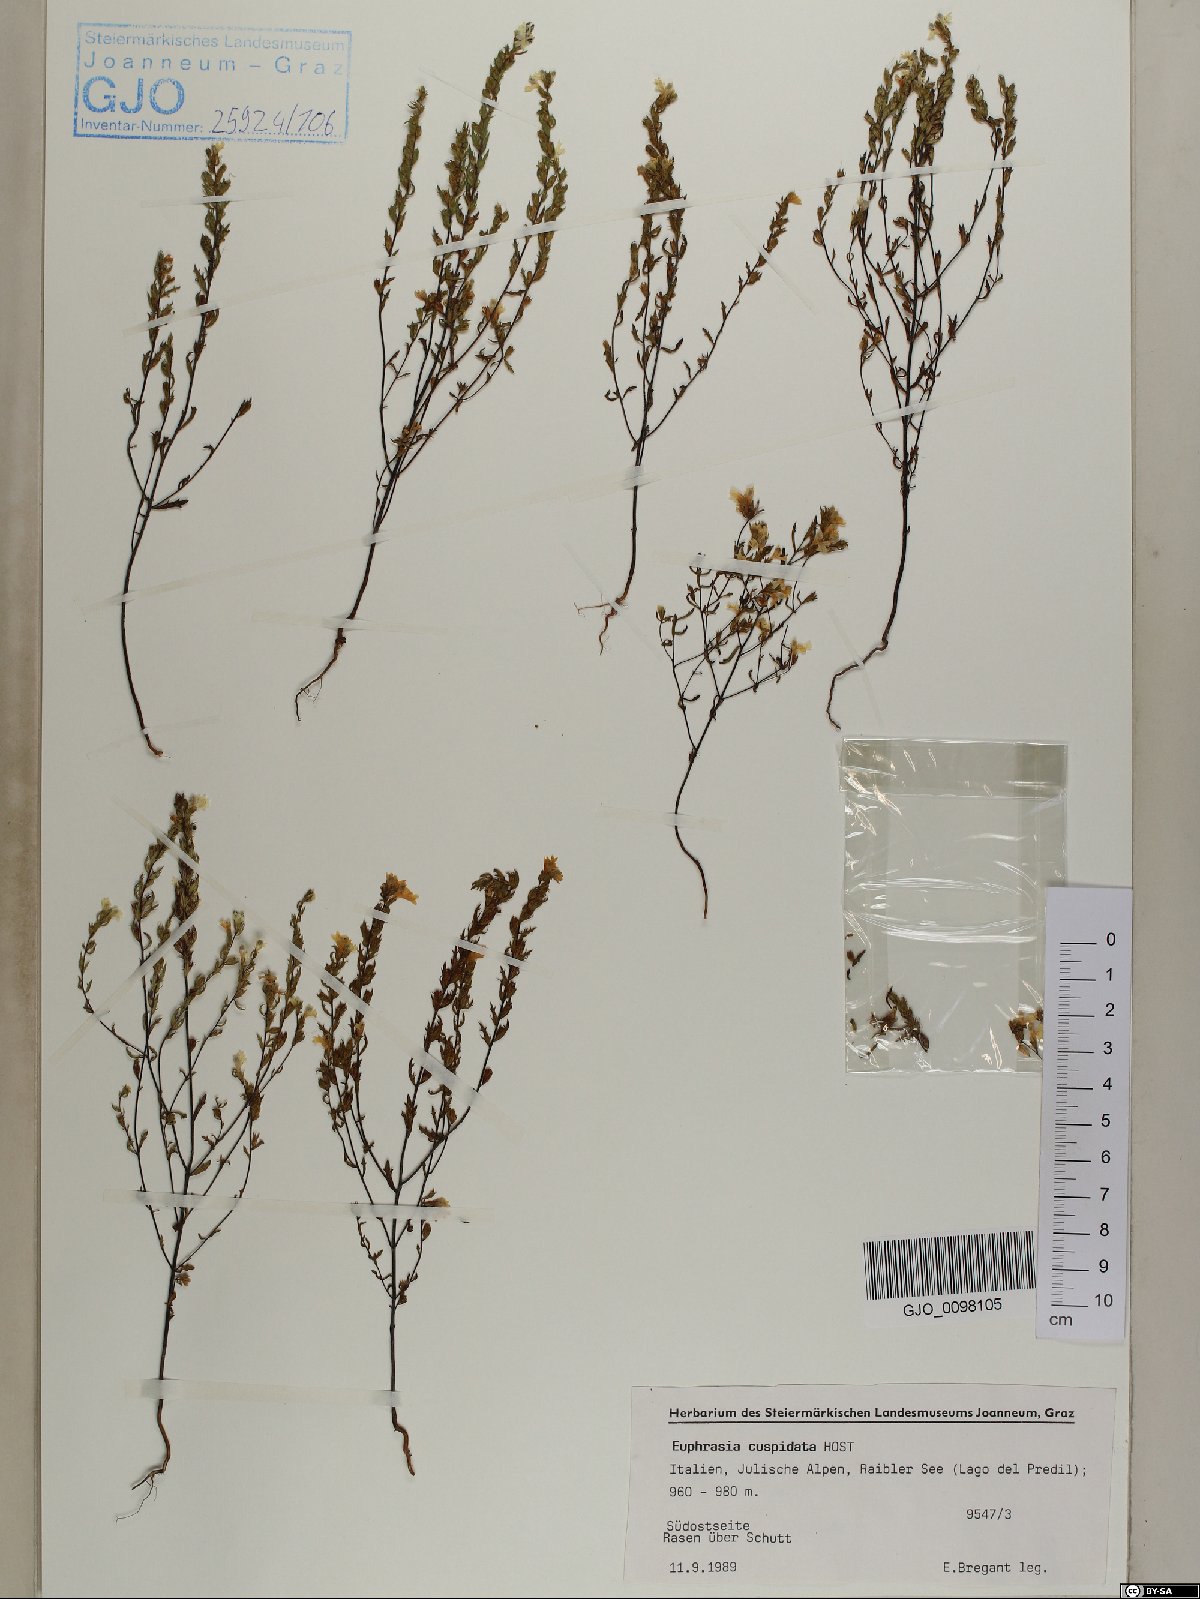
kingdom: Plantae
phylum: Tracheophyta
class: Magnoliopsida
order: Lamiales
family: Orobanchaceae
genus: Euphrasia
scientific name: Euphrasia cuspidata
